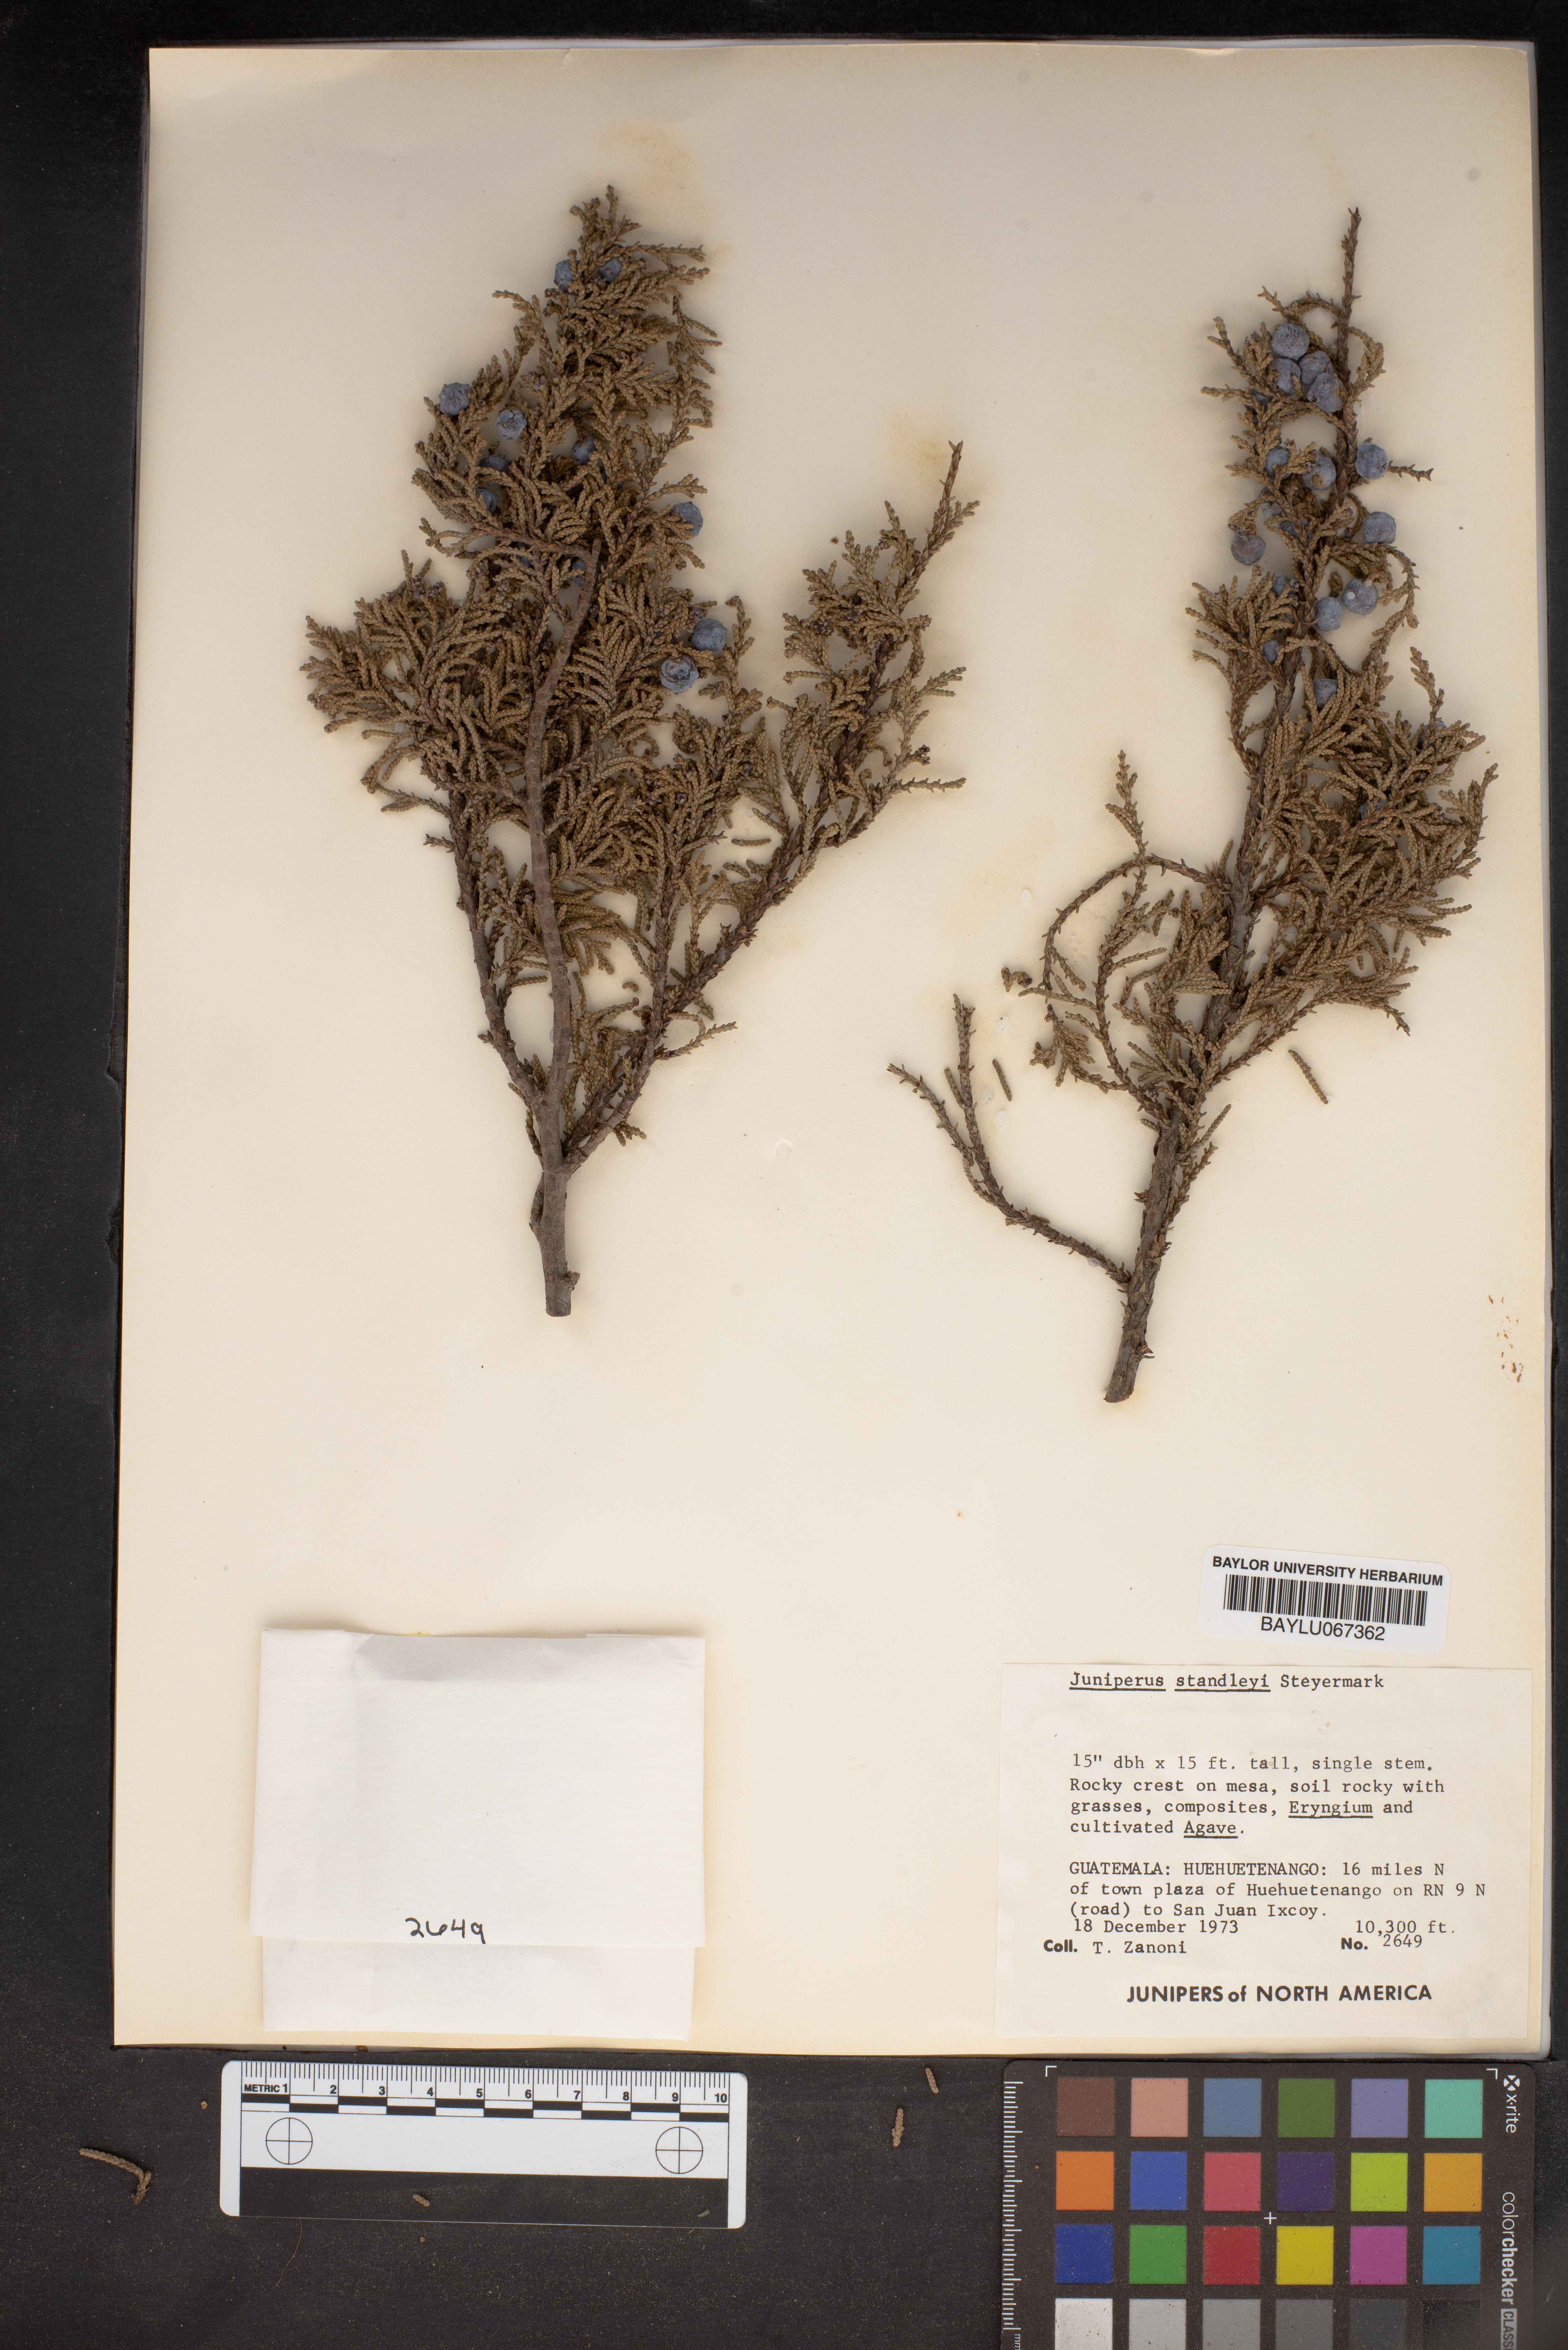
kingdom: Plantae
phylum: Tracheophyta
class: Pinopsida
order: Pinales
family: Cupressaceae
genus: Juniperus
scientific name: Juniperus standleyi
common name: Standley juniper
